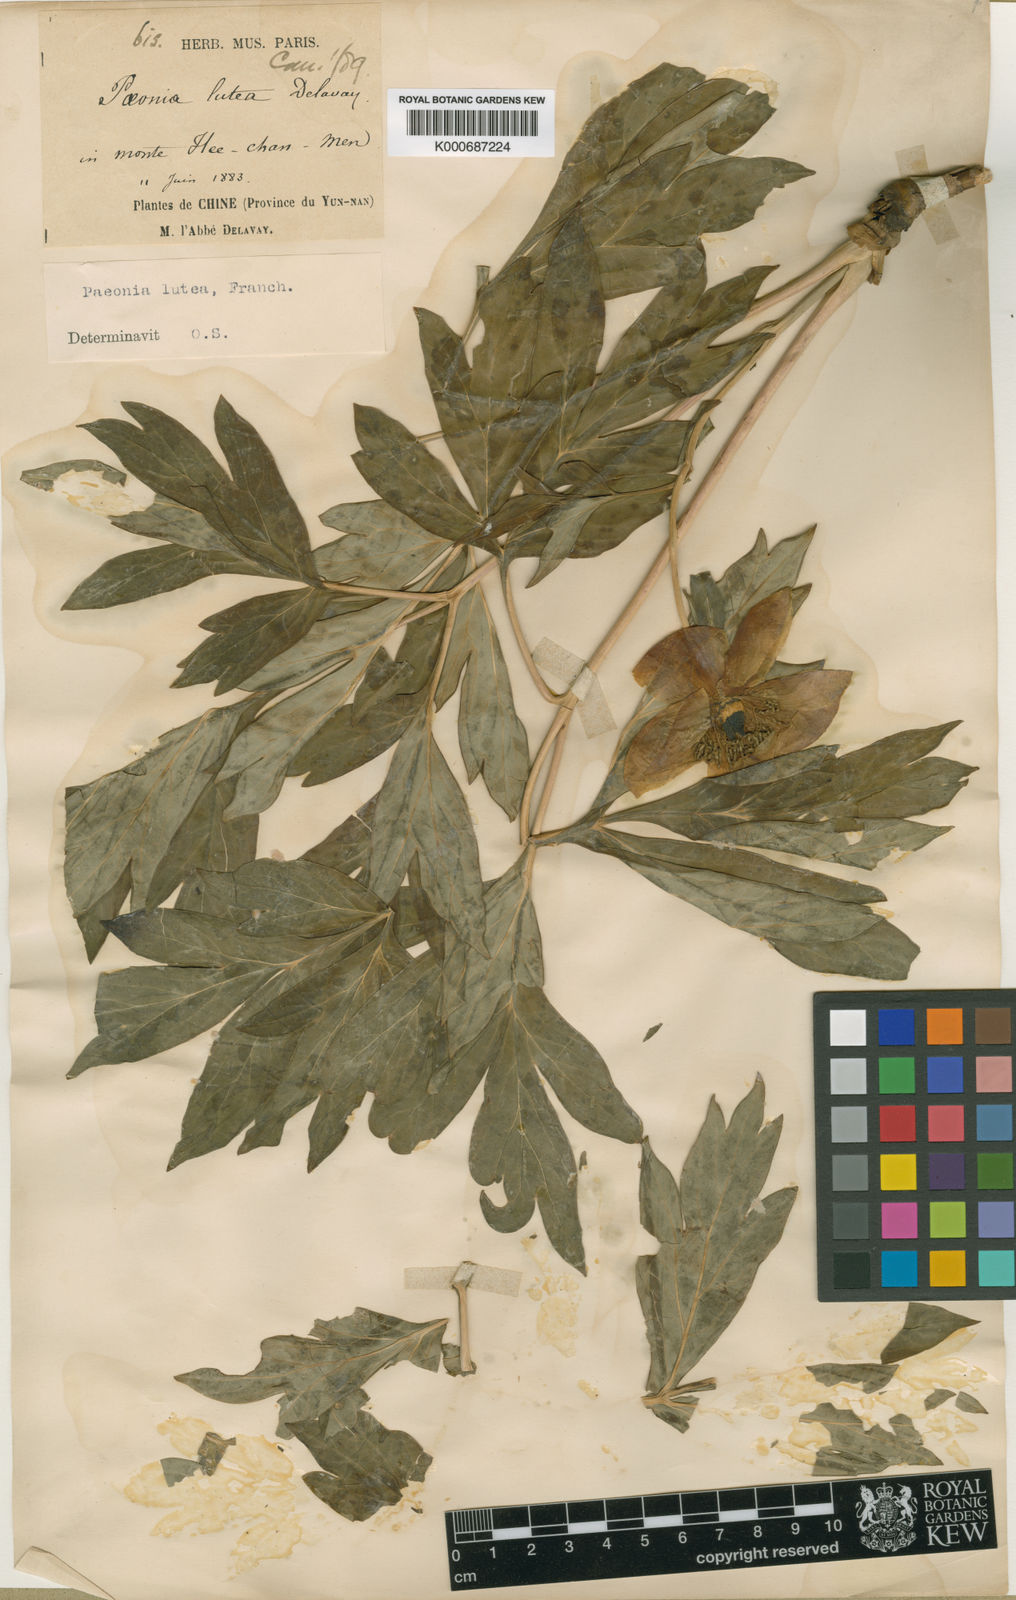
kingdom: Plantae
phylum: Tracheophyta
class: Magnoliopsida
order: Saxifragales
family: Paeoniaceae
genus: Paeonia
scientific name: Paeonia delavayi
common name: Dian mu dan
